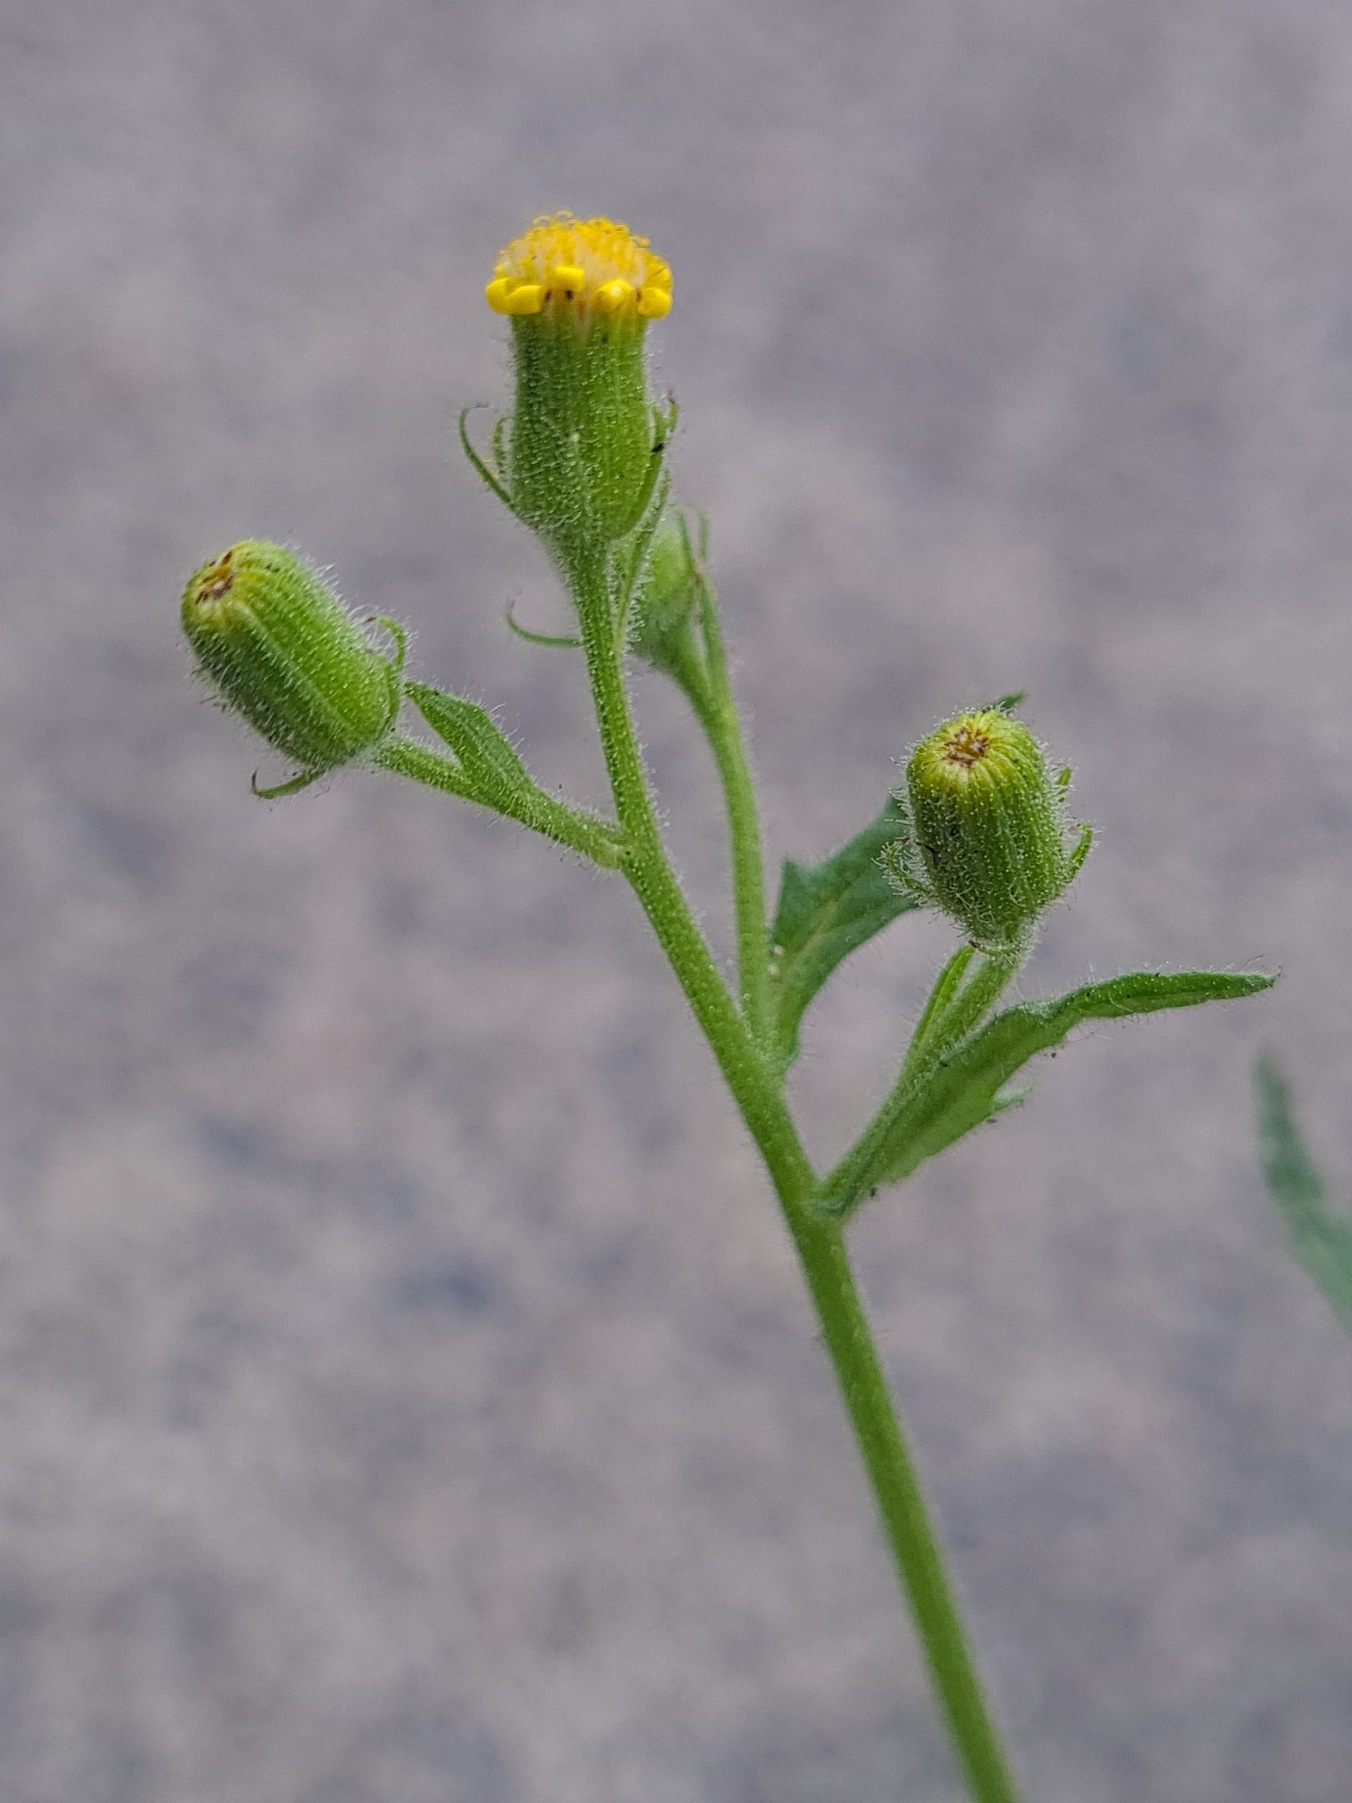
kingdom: Plantae
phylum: Tracheophyta
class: Magnoliopsida
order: Asterales
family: Asteraceae
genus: Senecio
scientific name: Senecio viscosus
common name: Klæbrig brandbæger
